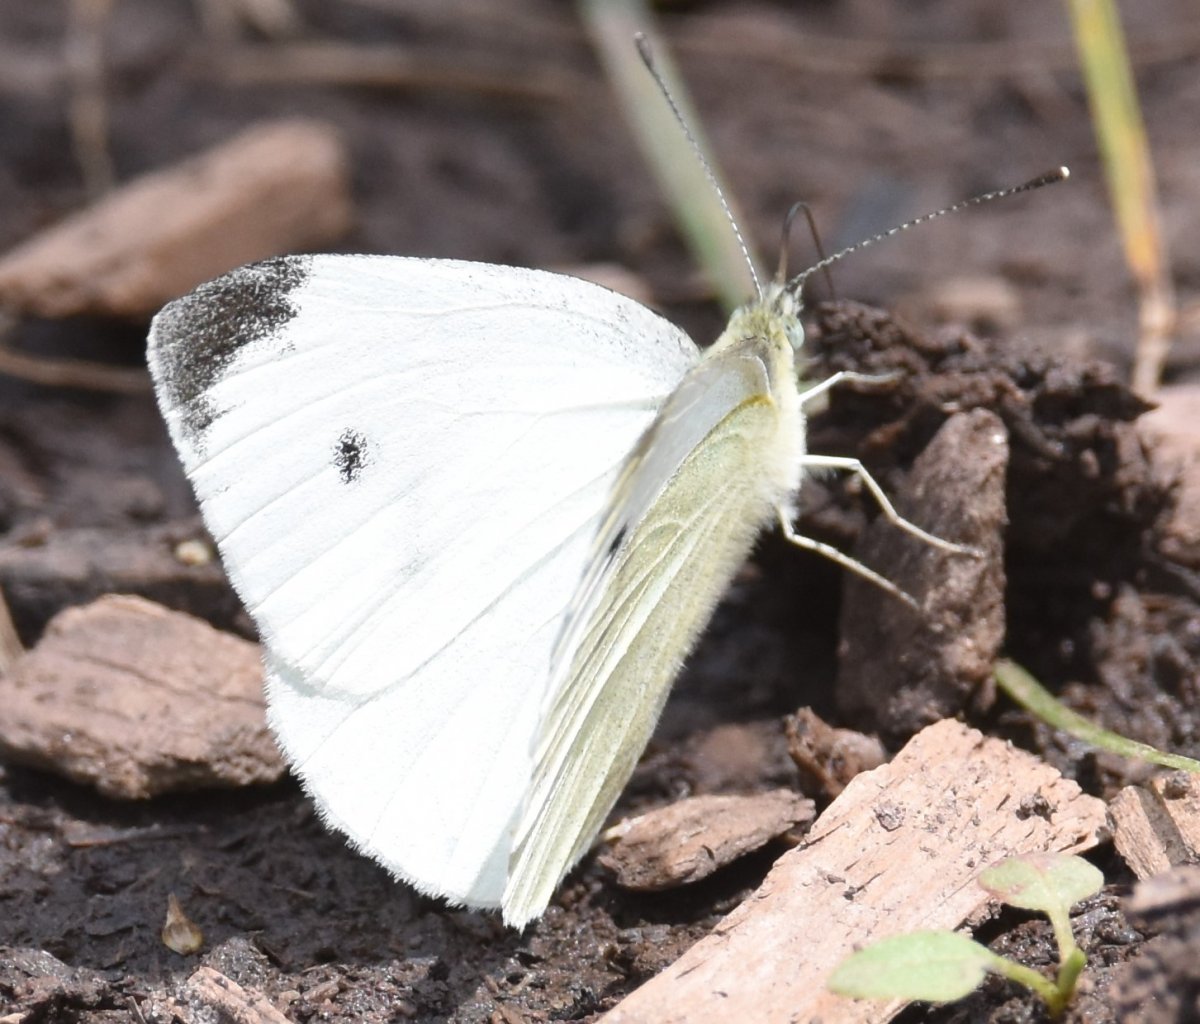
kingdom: Animalia
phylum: Arthropoda
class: Insecta
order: Lepidoptera
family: Pieridae
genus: Pieris
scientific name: Pieris rapae
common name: Cabbage White
